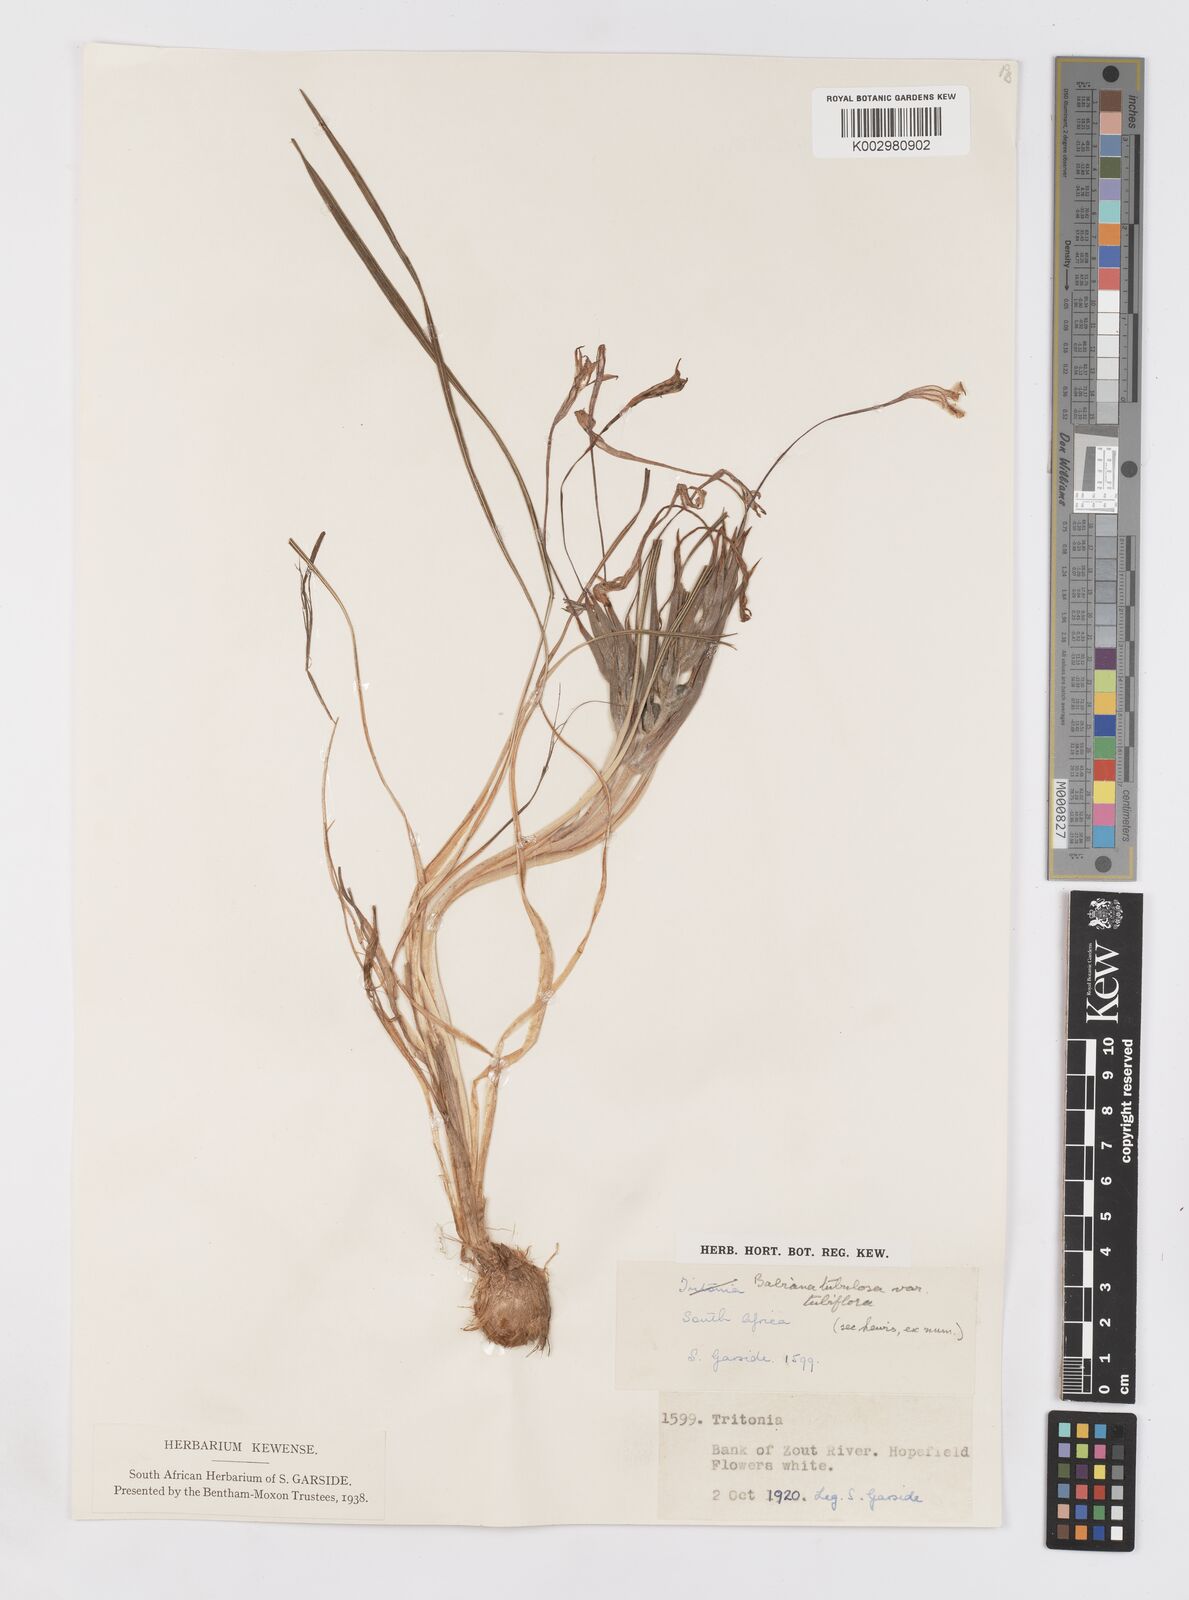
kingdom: Plantae
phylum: Tracheophyta
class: Liliopsida
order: Asparagales
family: Iridaceae
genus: Babiana
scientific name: Babiana tubiflora
